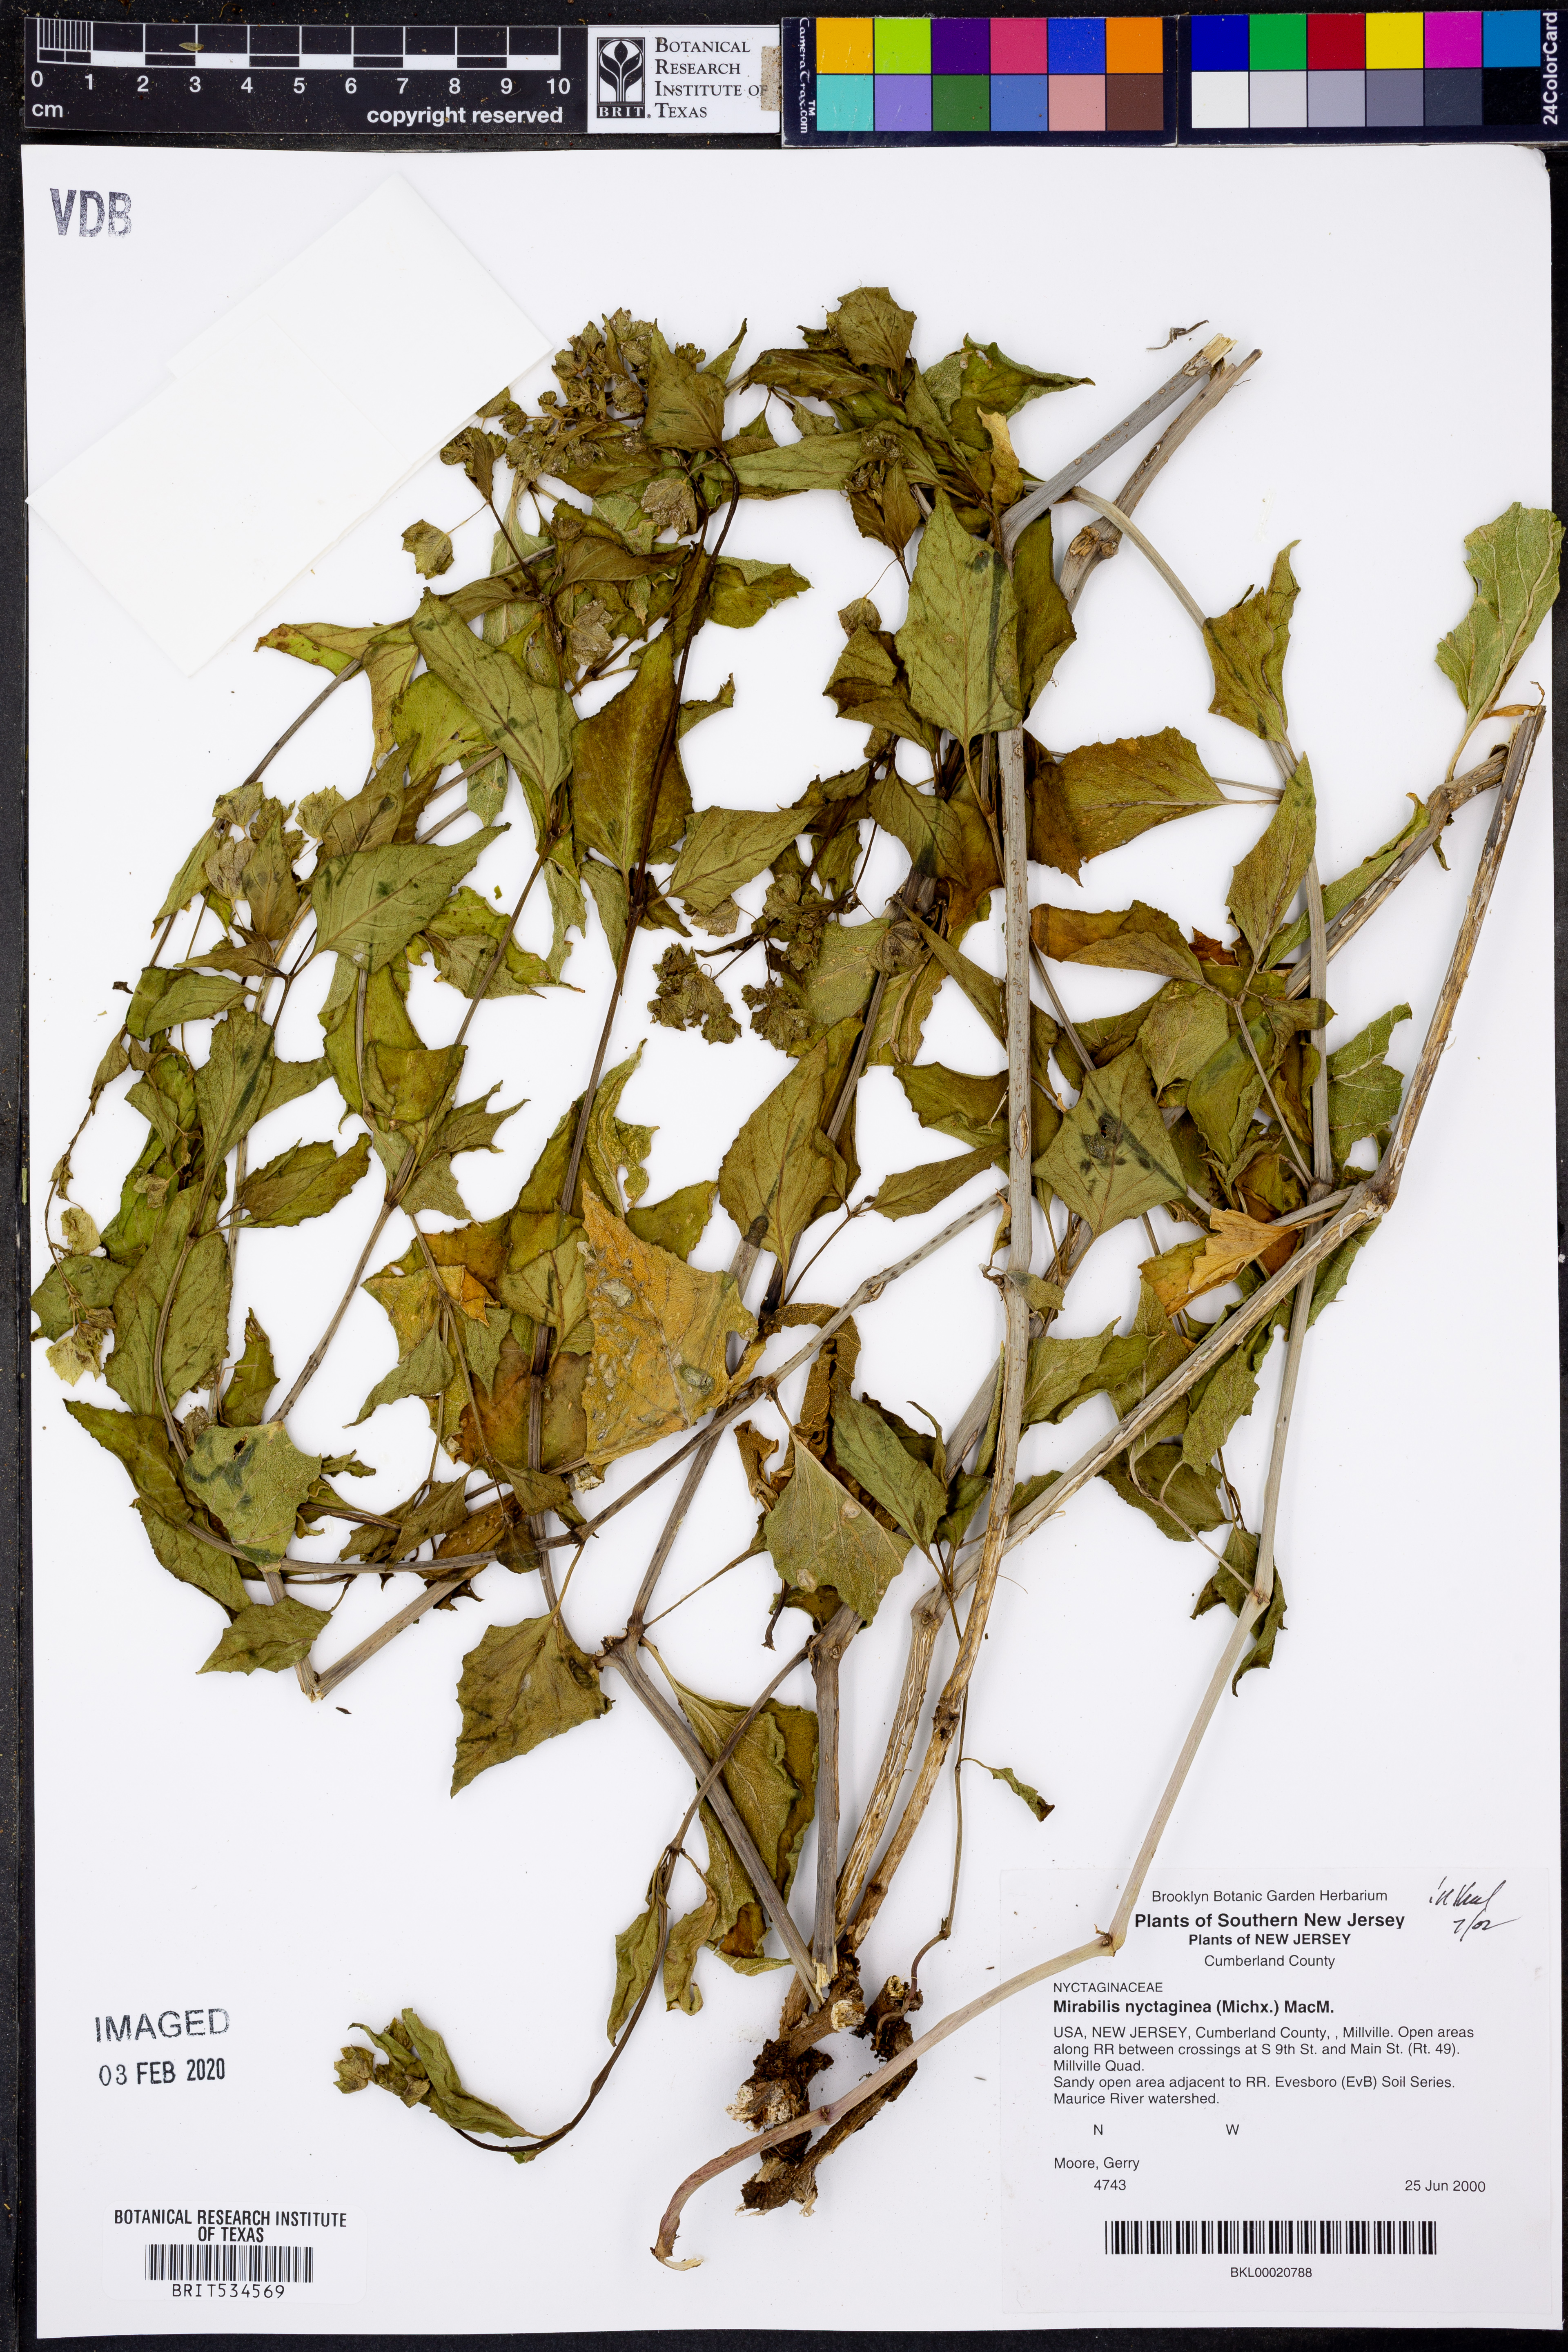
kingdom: Plantae
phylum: Tracheophyta
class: Magnoliopsida
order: Caryophyllales
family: Nyctaginaceae
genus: Mirabilis
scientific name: Mirabilis nyctaginea
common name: Umbrella wort
